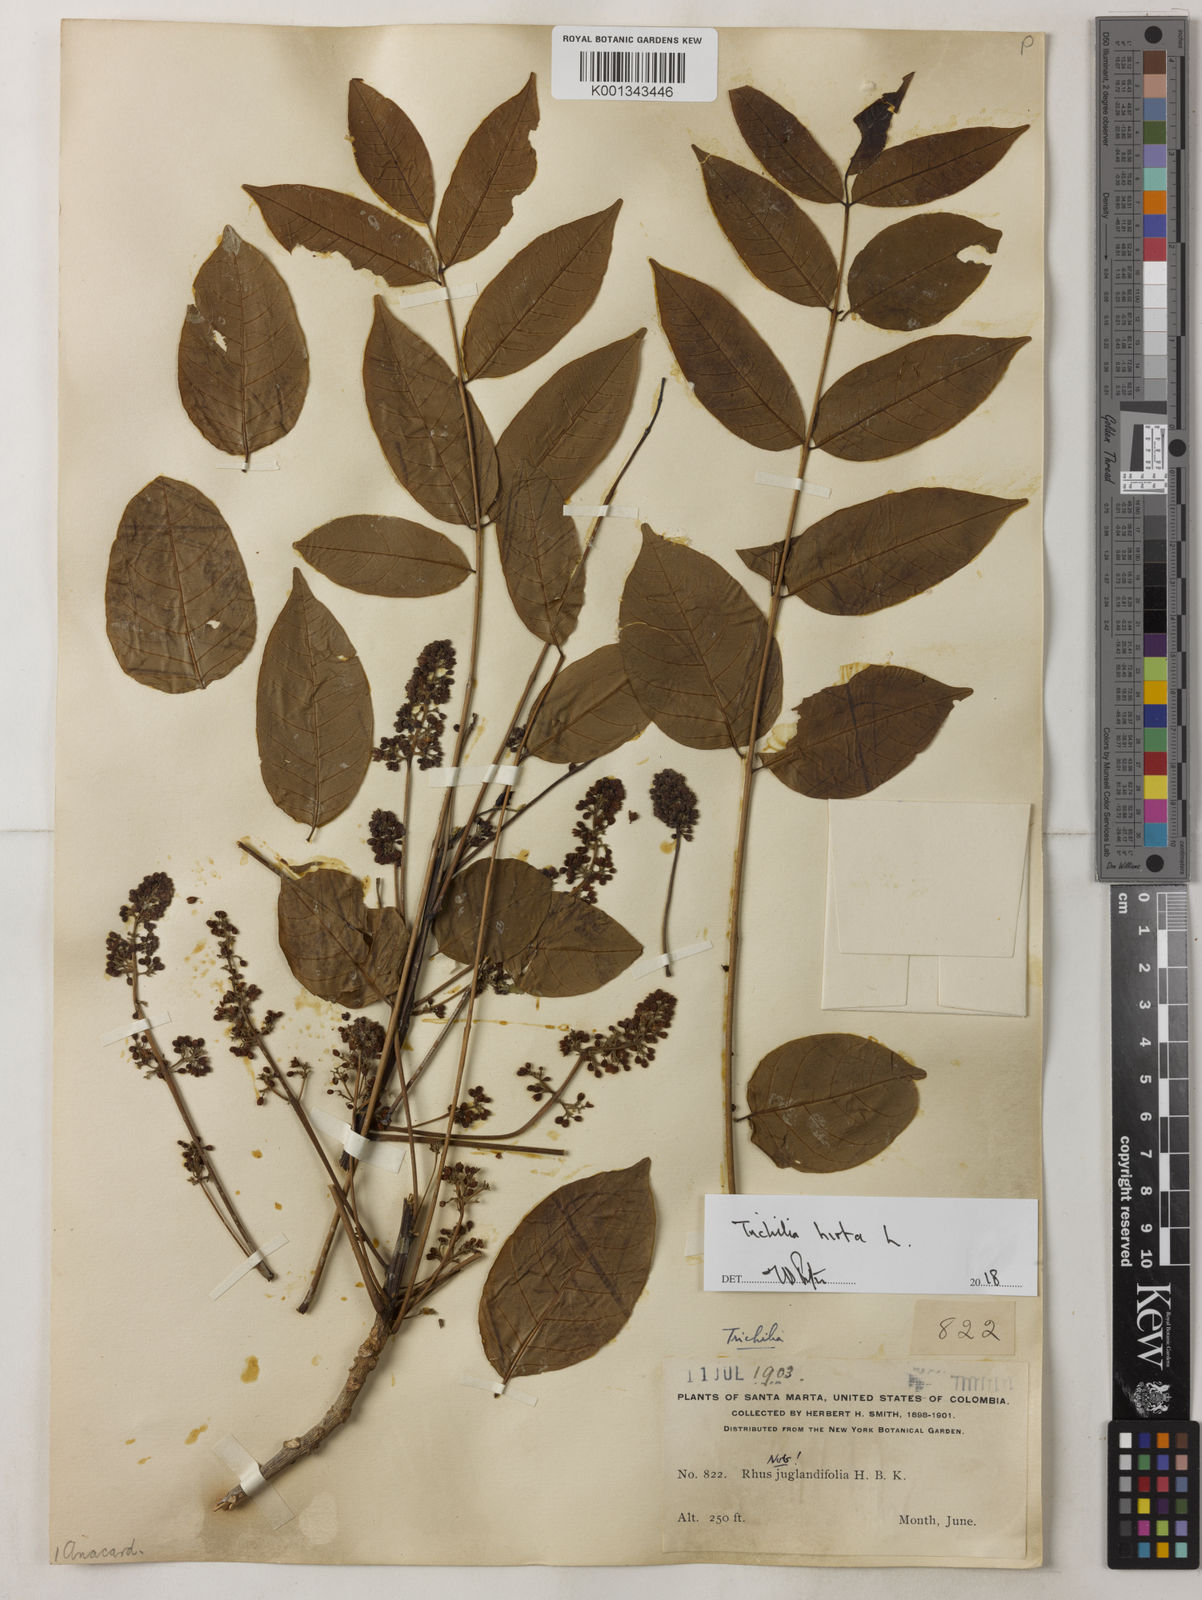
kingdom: Plantae
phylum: Tracheophyta
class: Magnoliopsida
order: Sapindales
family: Meliaceae
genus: Trichilia
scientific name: Trichilia hirta
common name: Red-cedar
